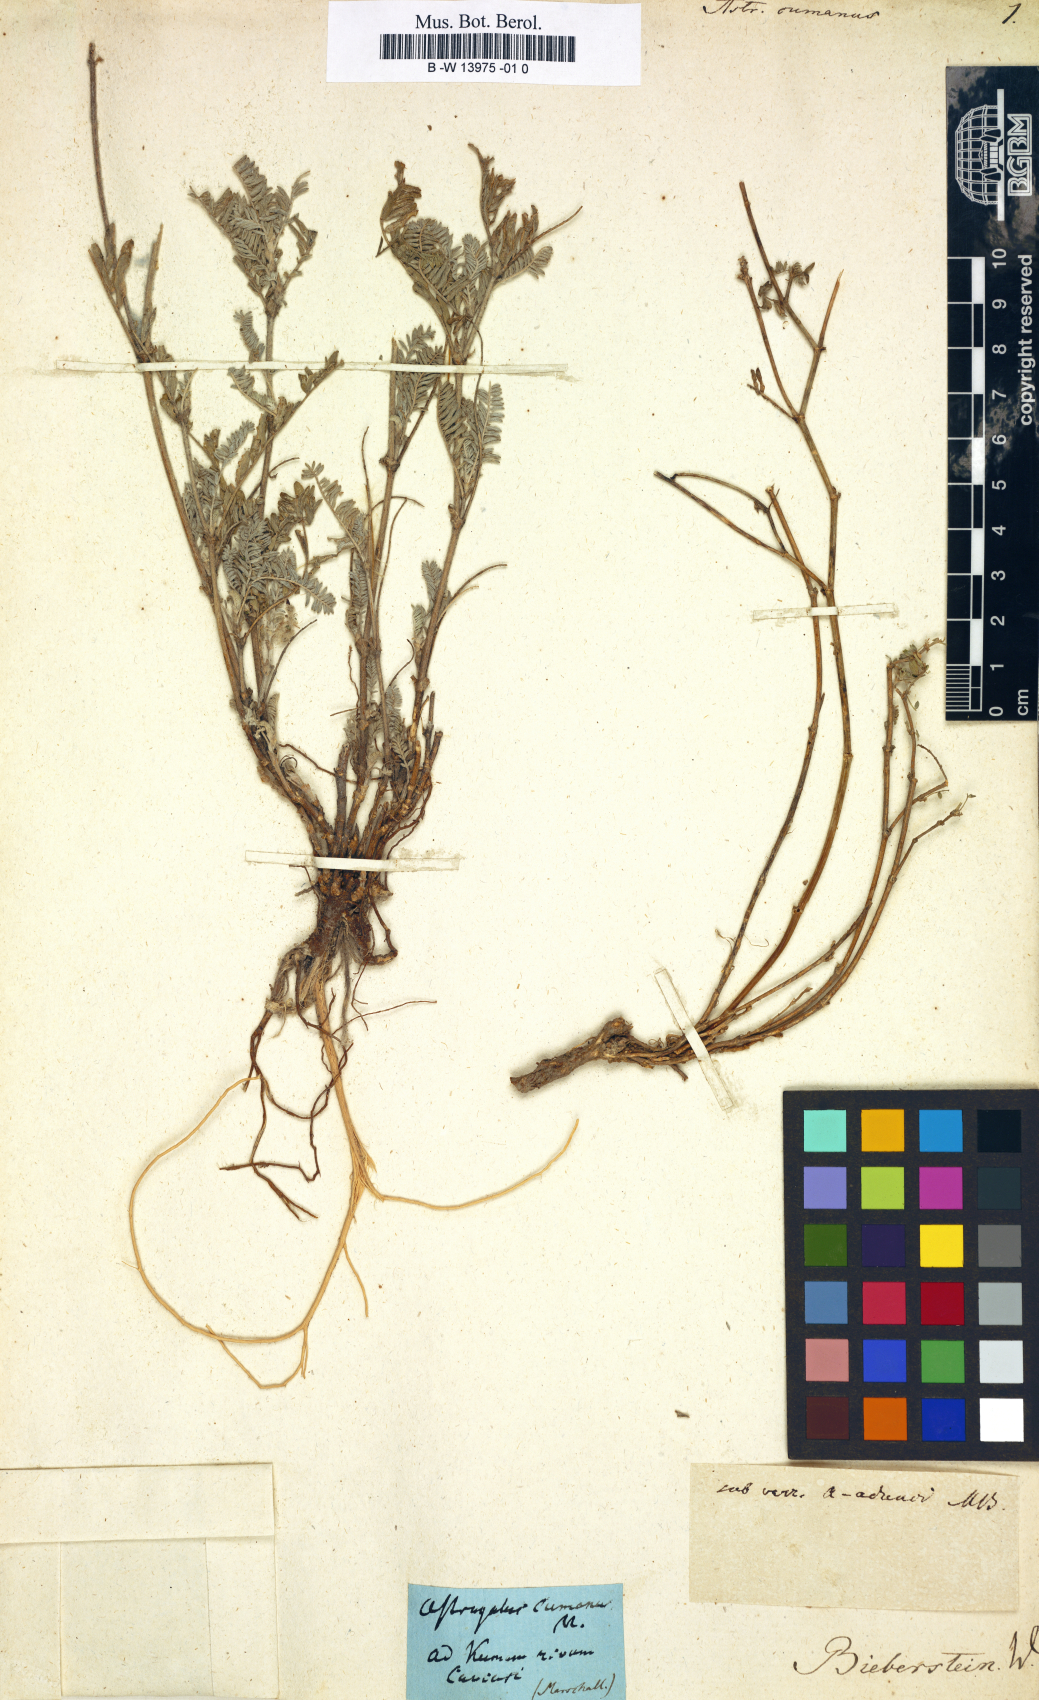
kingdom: Plantae
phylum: Tracheophyta
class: Magnoliopsida
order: Fabales
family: Fabaceae
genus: Astragalus
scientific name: Astragalus lasioglottis
